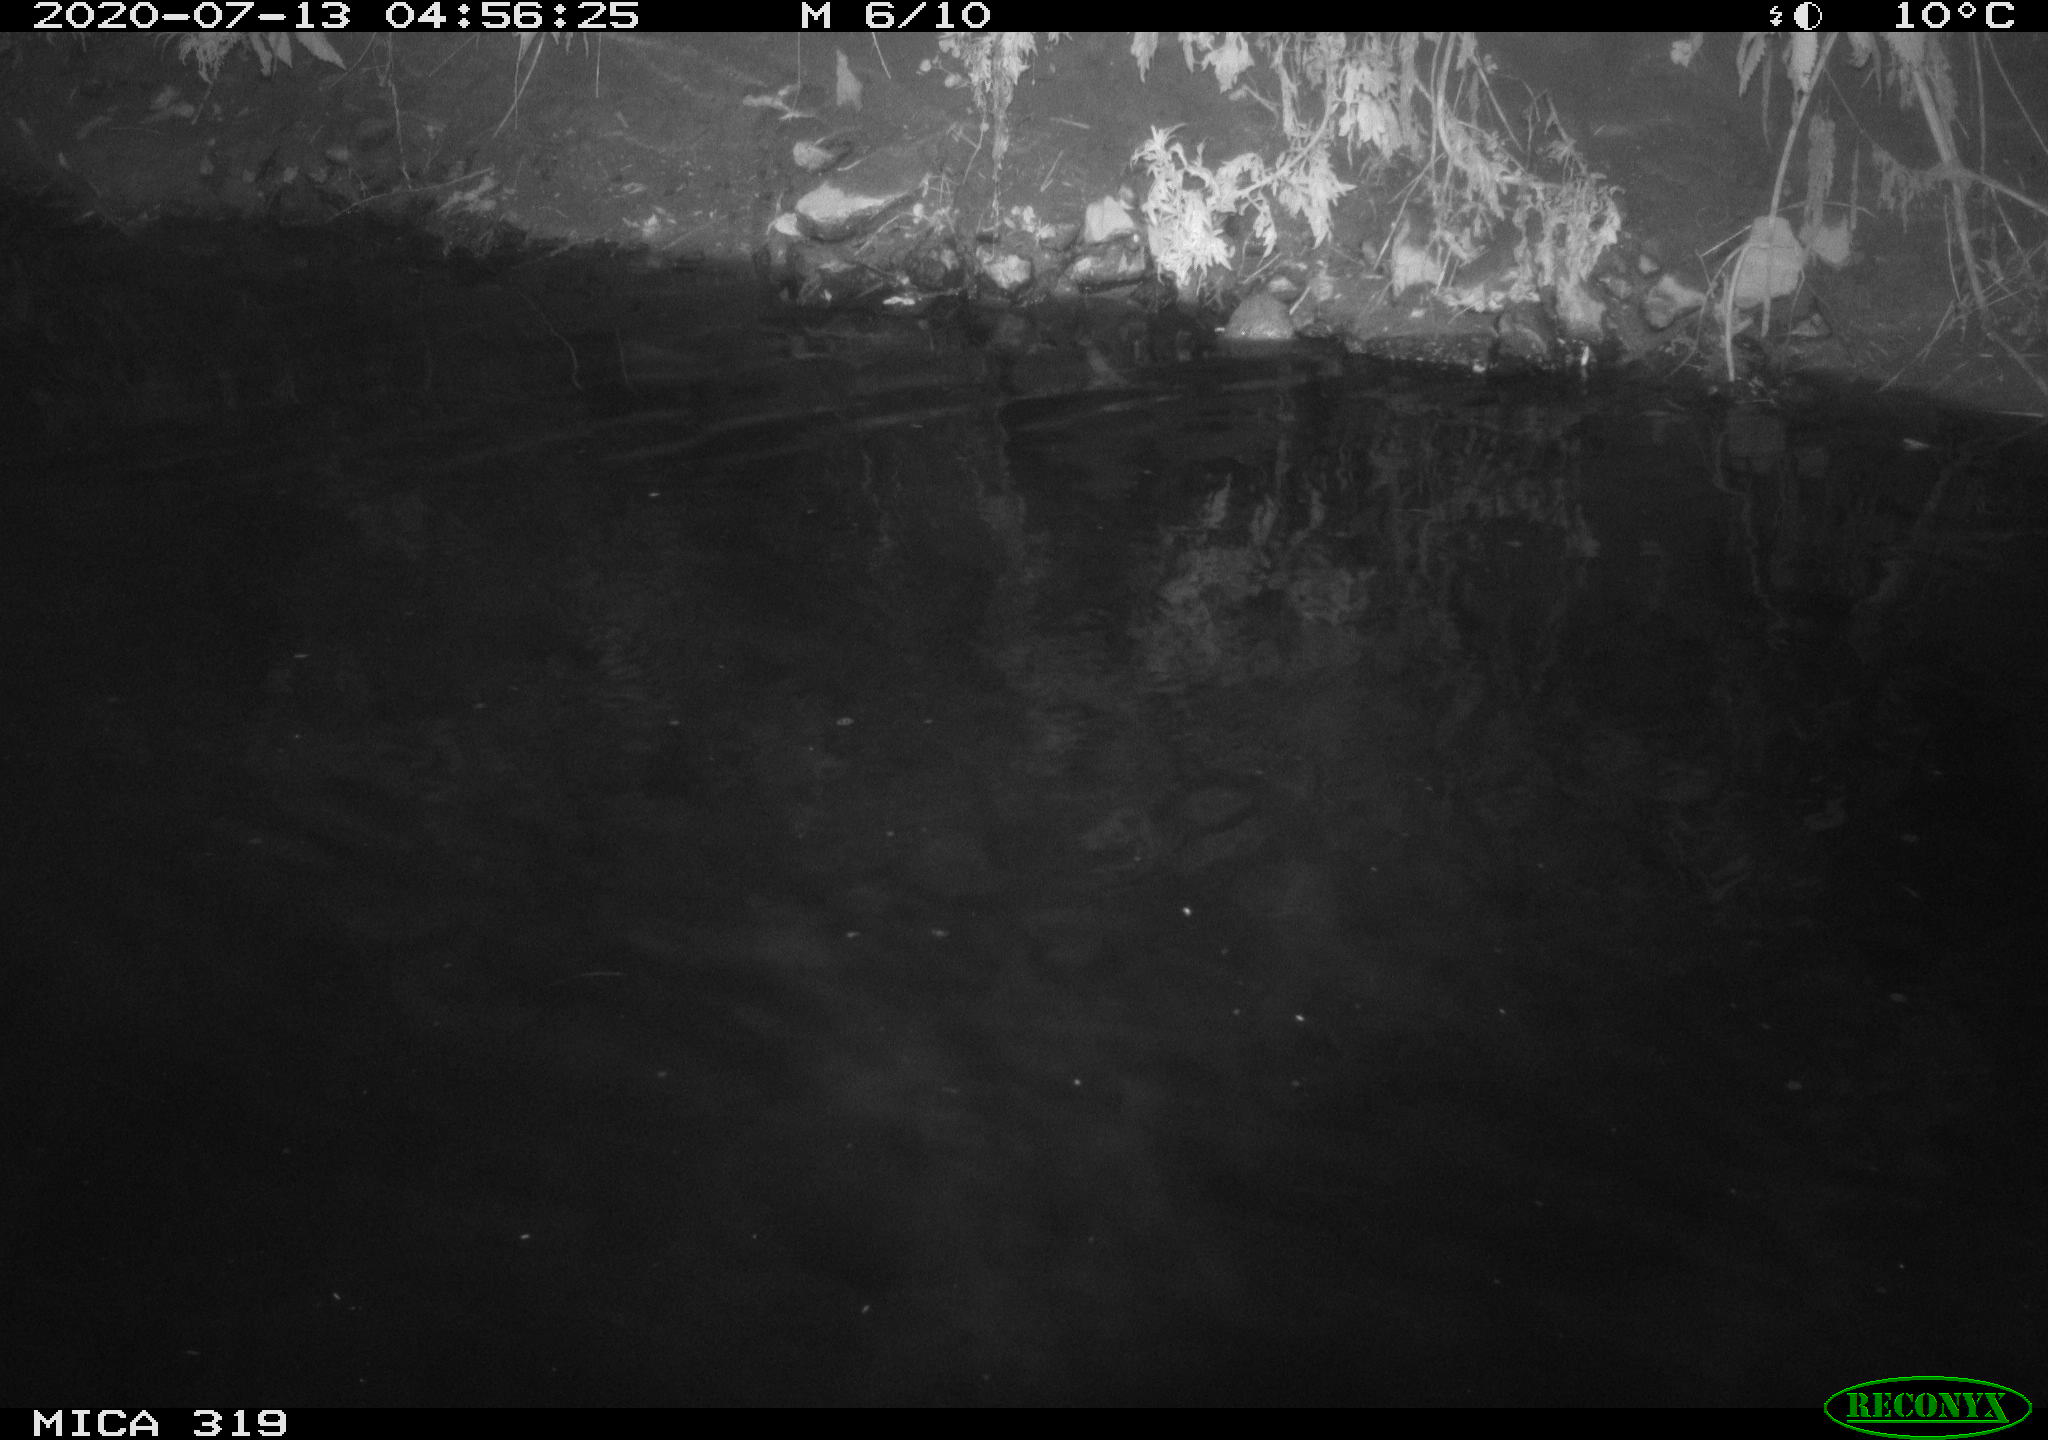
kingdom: Animalia
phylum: Chordata
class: Aves
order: Anseriformes
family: Anatidae
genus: Anas
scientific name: Anas platyrhynchos
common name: Mallard
